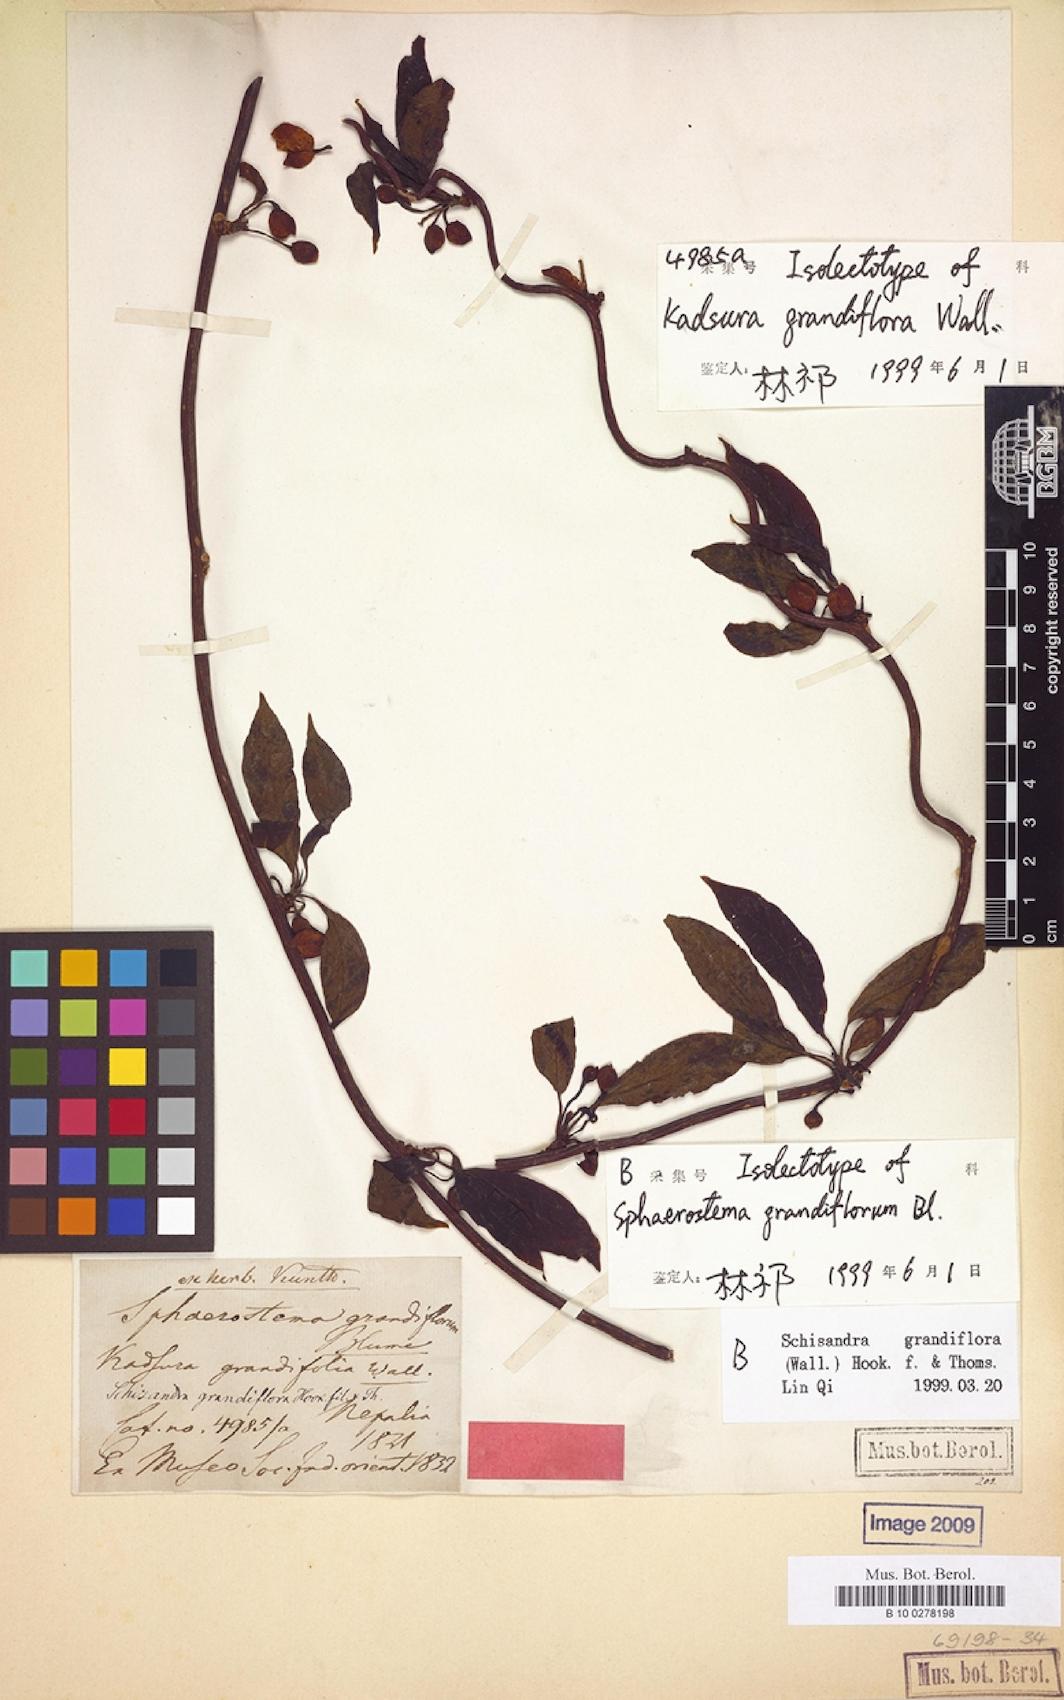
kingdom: Plantae
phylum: Tracheophyta
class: Magnoliopsida
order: Austrobaileyales
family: Schisandraceae
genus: Schisandra
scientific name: Schisandra grandiflora
